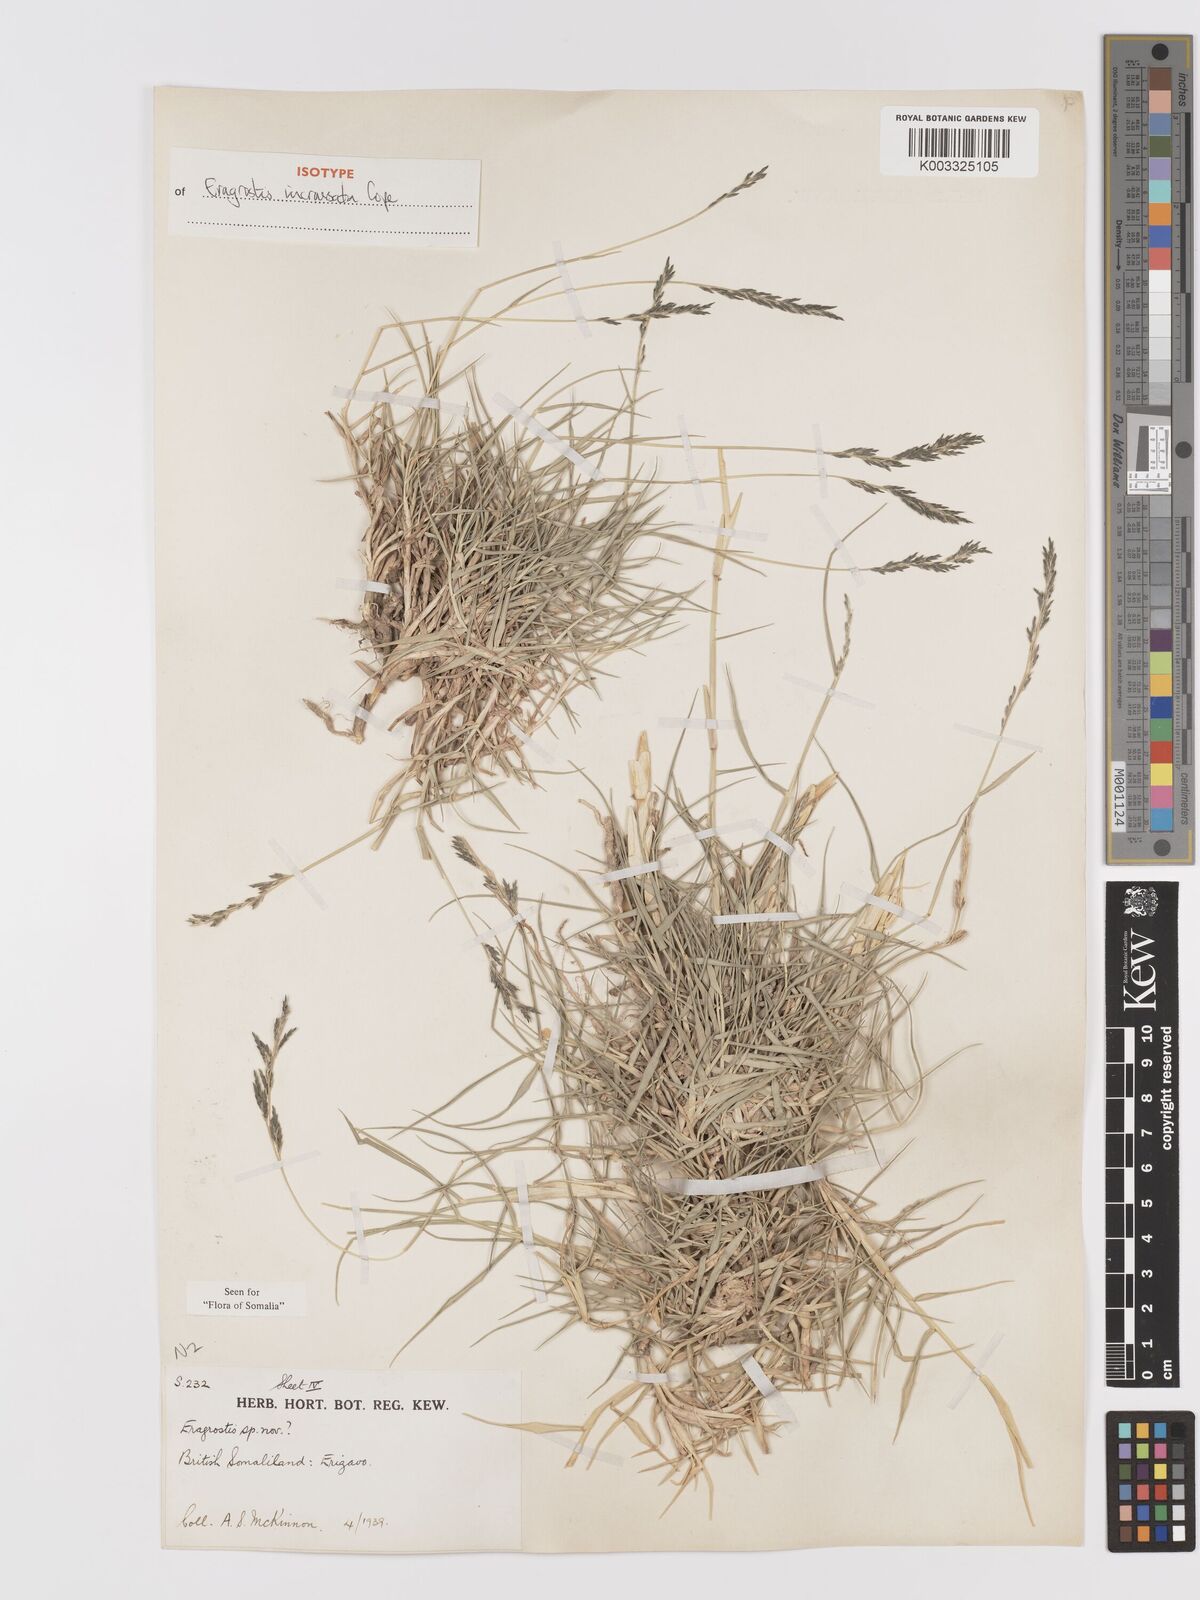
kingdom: Plantae
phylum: Tracheophyta
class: Liliopsida
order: Poales
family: Poaceae
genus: Eragrostis
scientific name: Eragrostis incrassata
